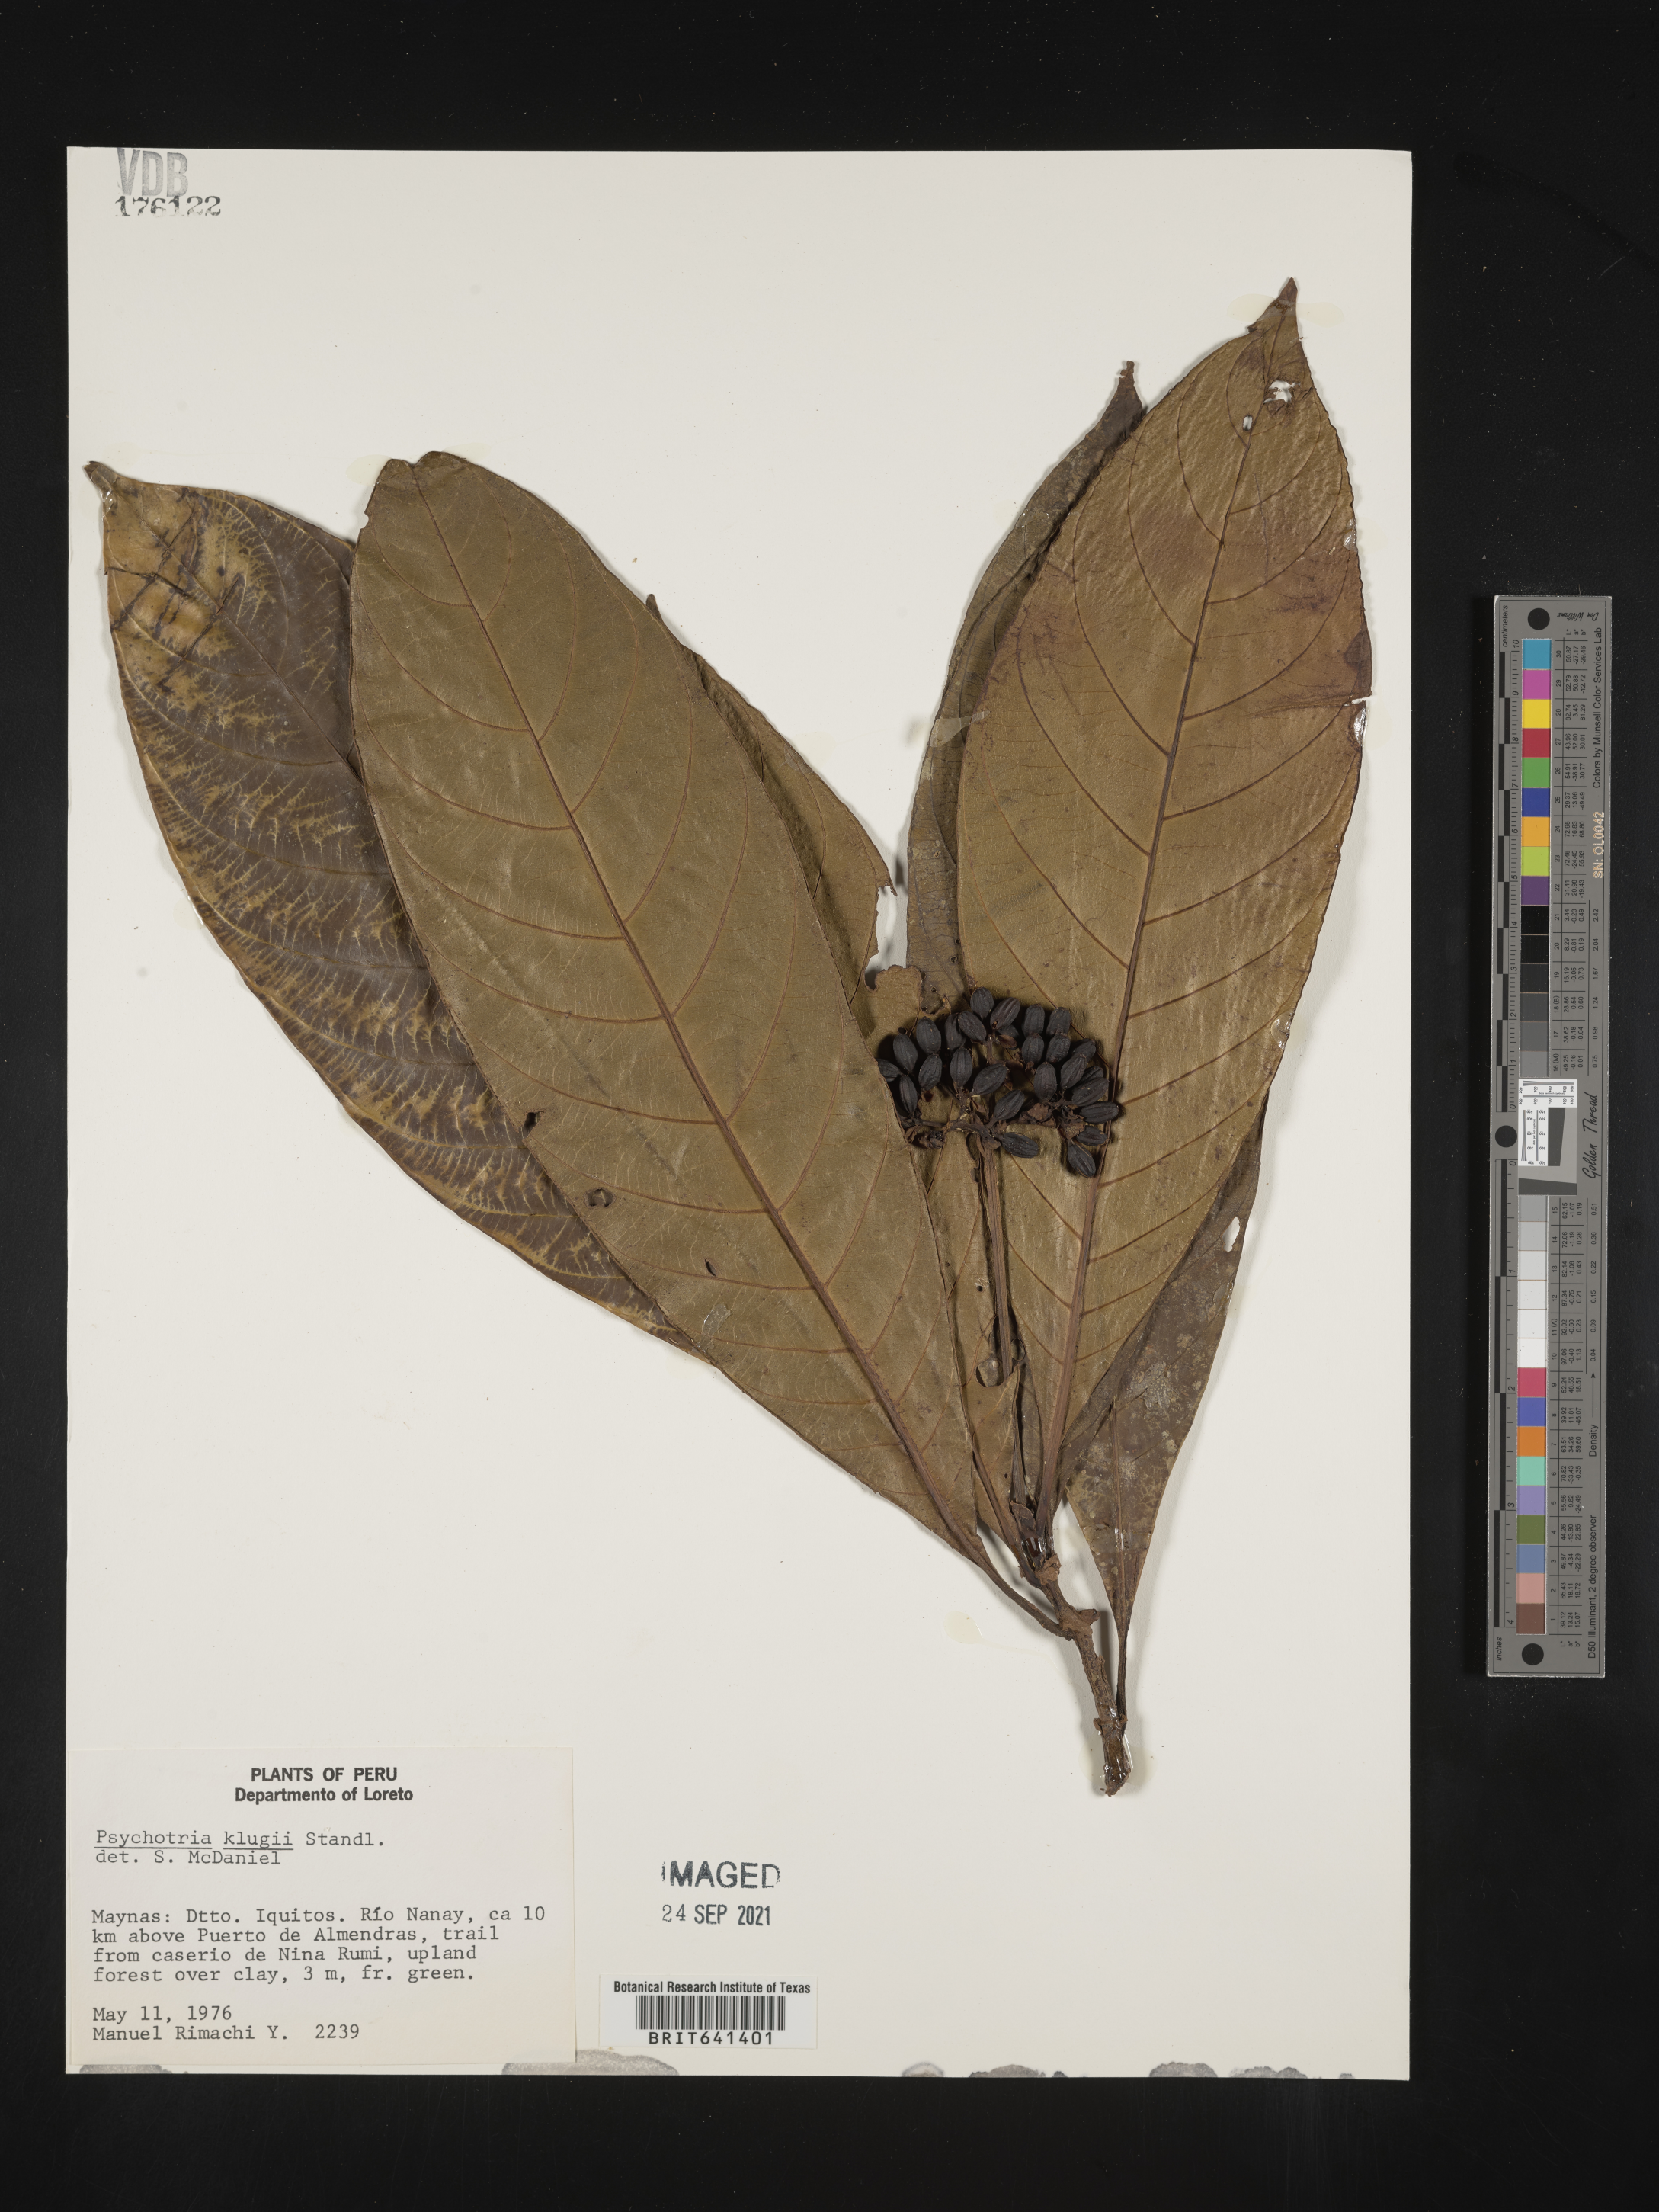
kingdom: Plantae
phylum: Tracheophyta
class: Magnoliopsida
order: Gentianales
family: Rubiaceae
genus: Psychotria
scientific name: Psychotria
